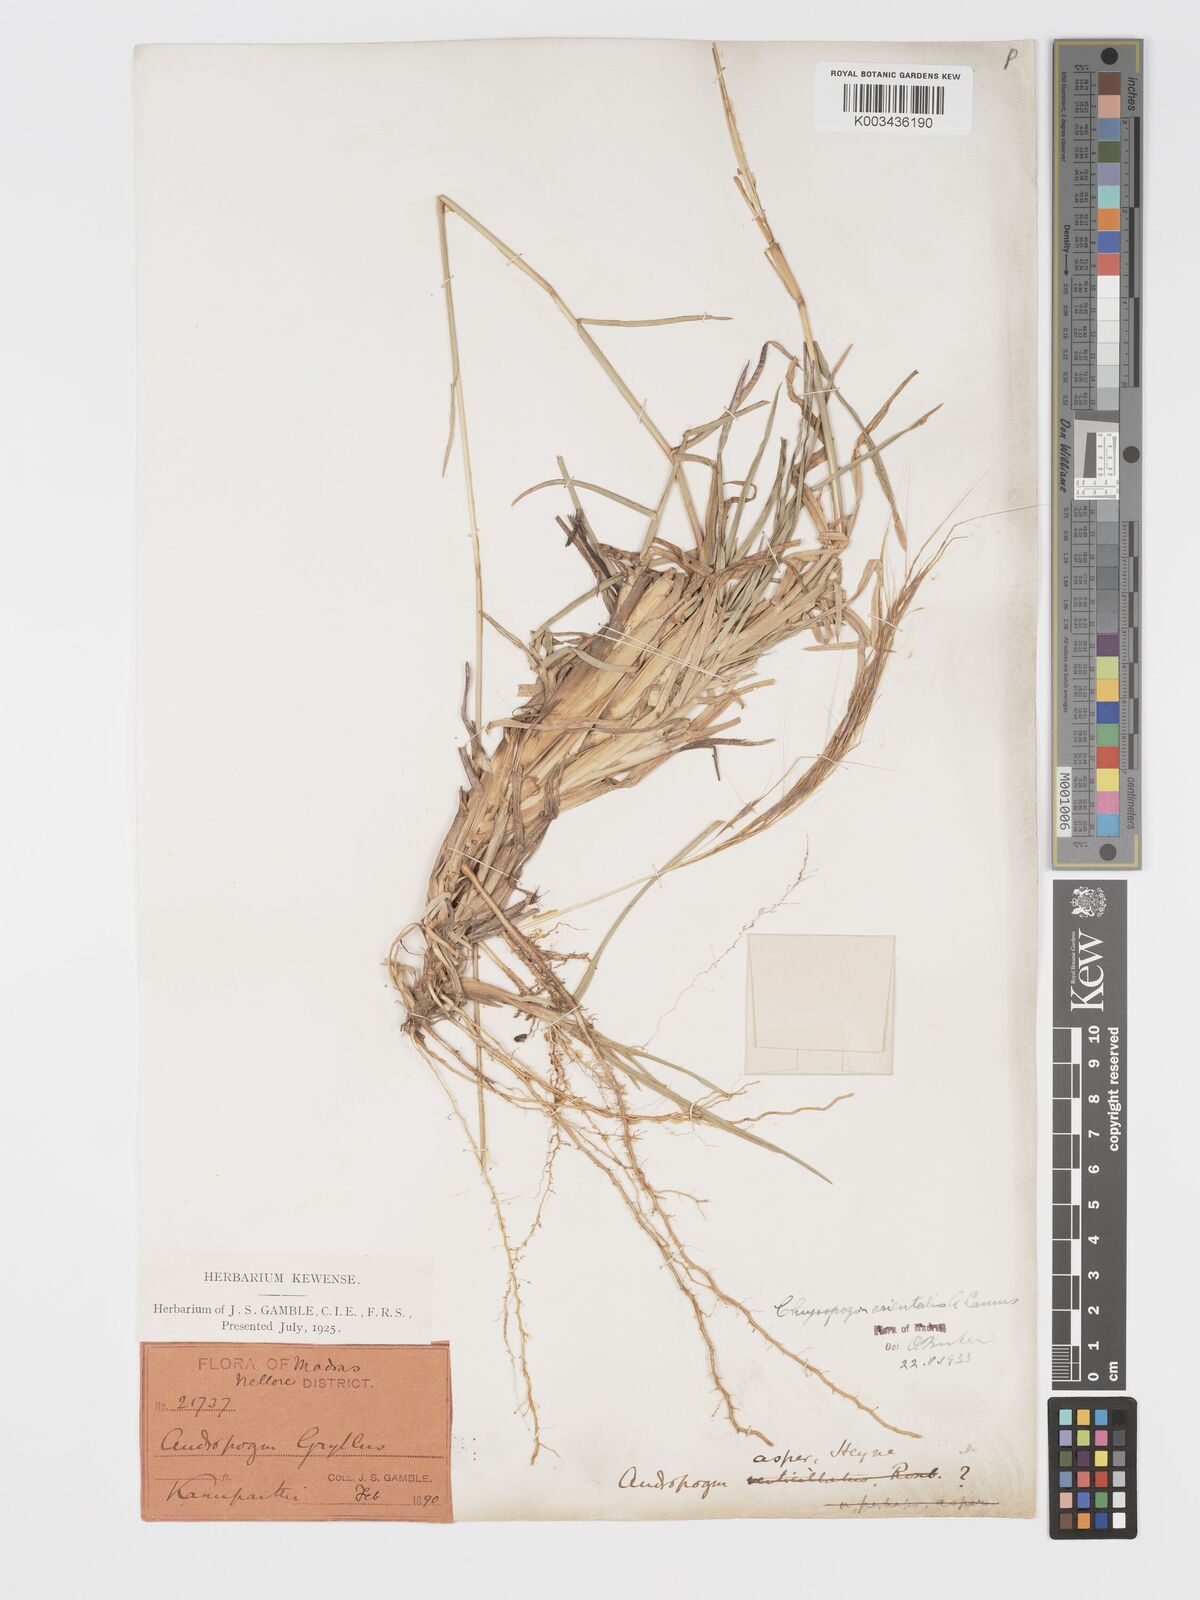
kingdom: Plantae
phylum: Tracheophyta
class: Liliopsida
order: Poales
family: Poaceae
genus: Chrysopogon
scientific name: Chrysopogon orientalis
